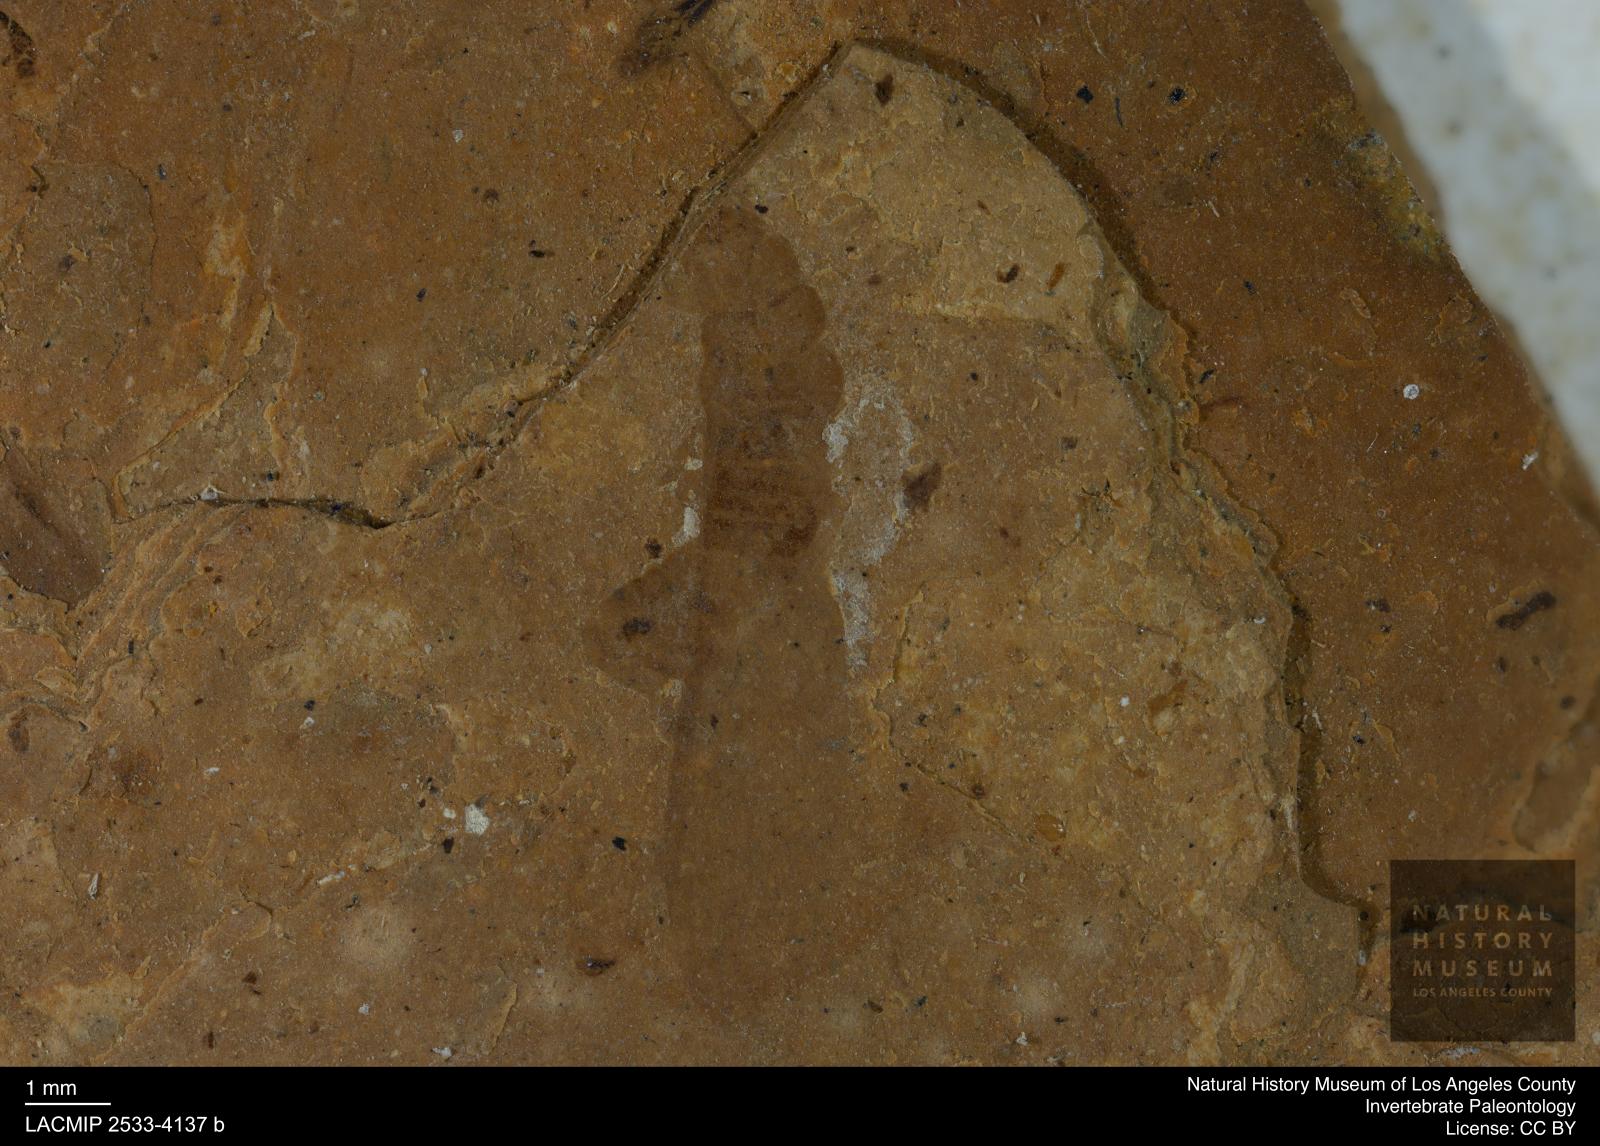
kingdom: Animalia
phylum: Arthropoda
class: Insecta
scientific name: Insecta
